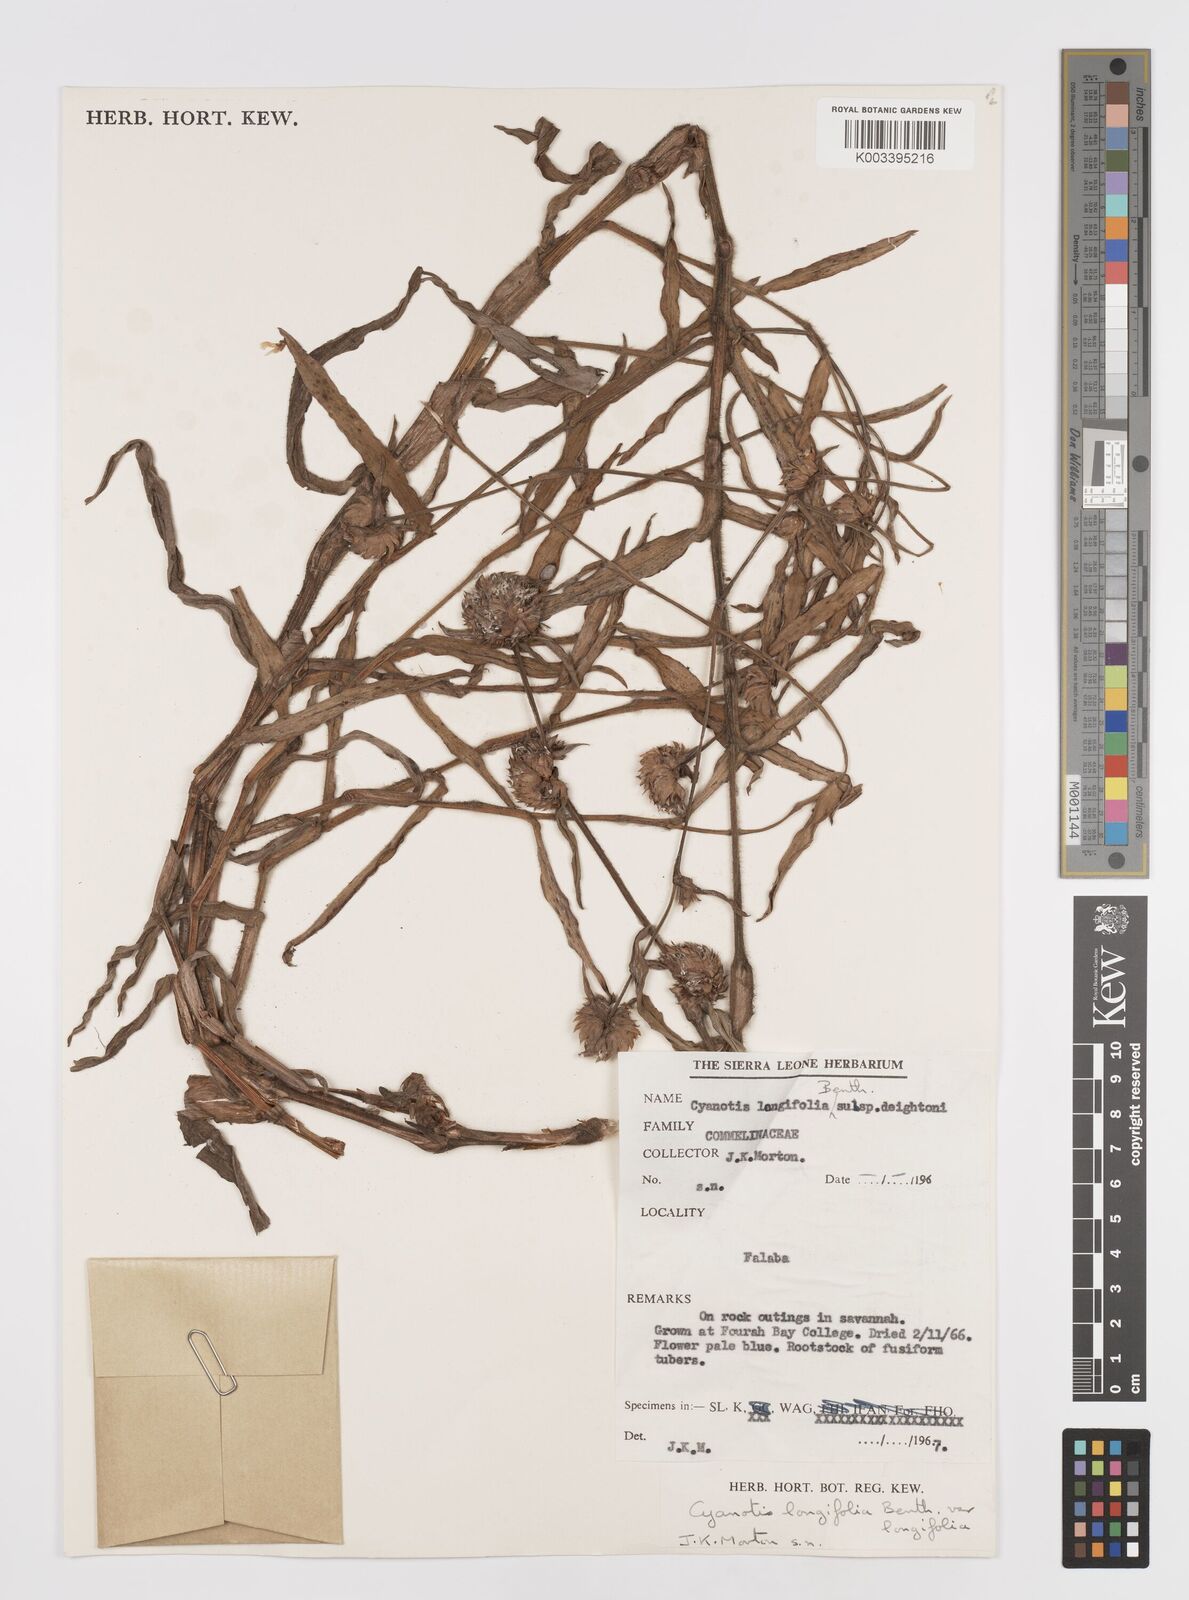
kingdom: Plantae
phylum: Tracheophyta
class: Liliopsida
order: Commelinales
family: Commelinaceae
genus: Cyanotis
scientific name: Cyanotis
